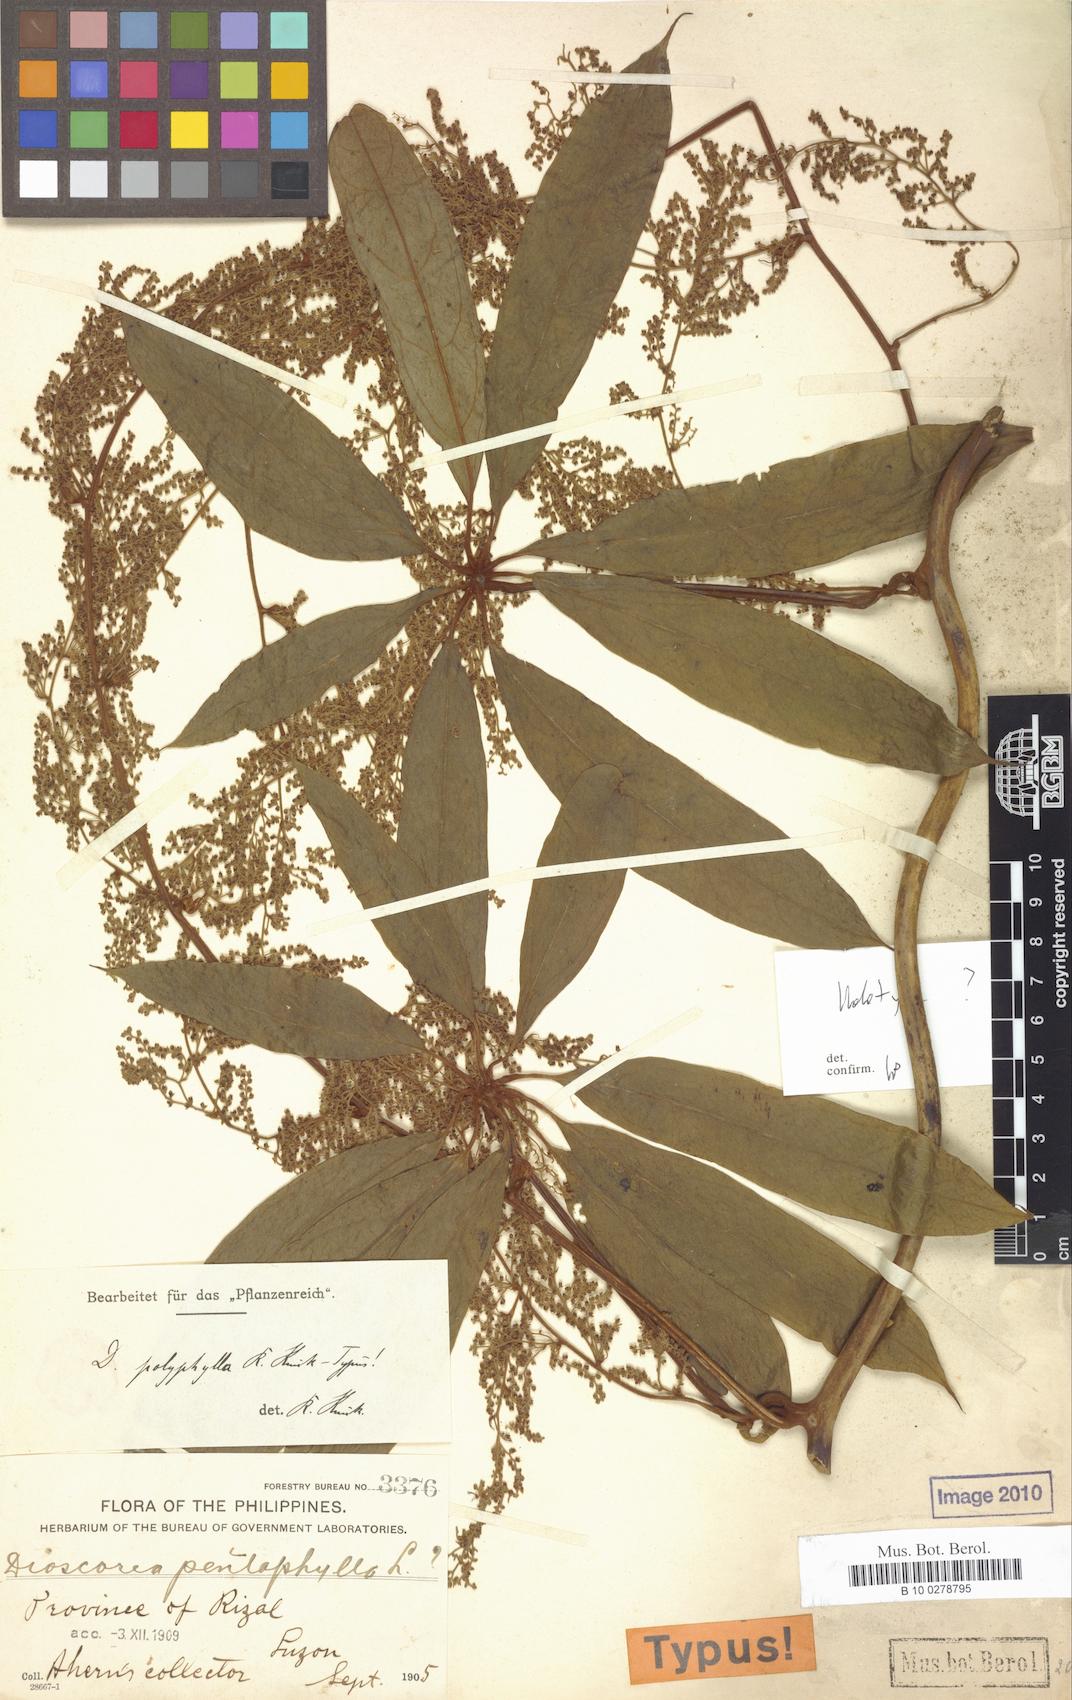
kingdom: Plantae
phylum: Tracheophyta
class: Liliopsida
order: Dioscoreales
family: Dioscoreaceae
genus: Dioscorea
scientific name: Dioscorea cumingii
